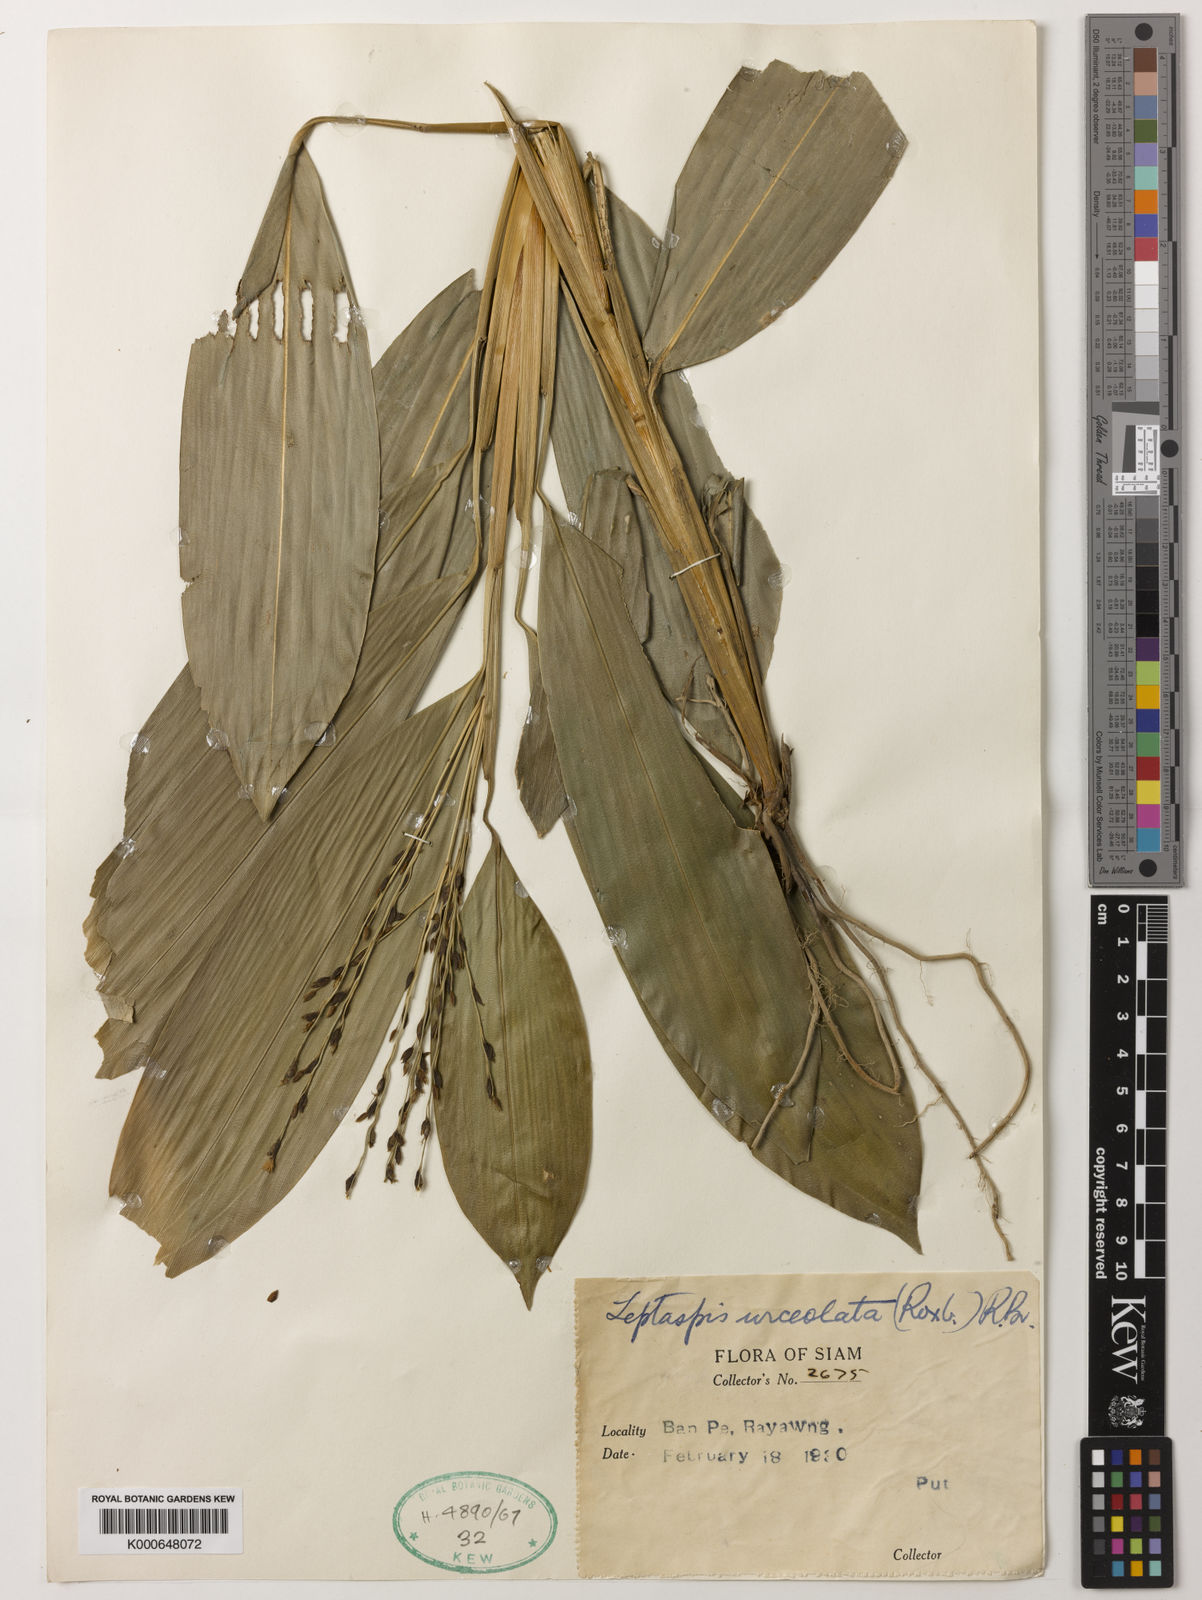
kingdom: Plantae
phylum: Tracheophyta
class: Liliopsida
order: Poales
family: Poaceae
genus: Scrotochloa
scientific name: Scrotochloa urceolata
